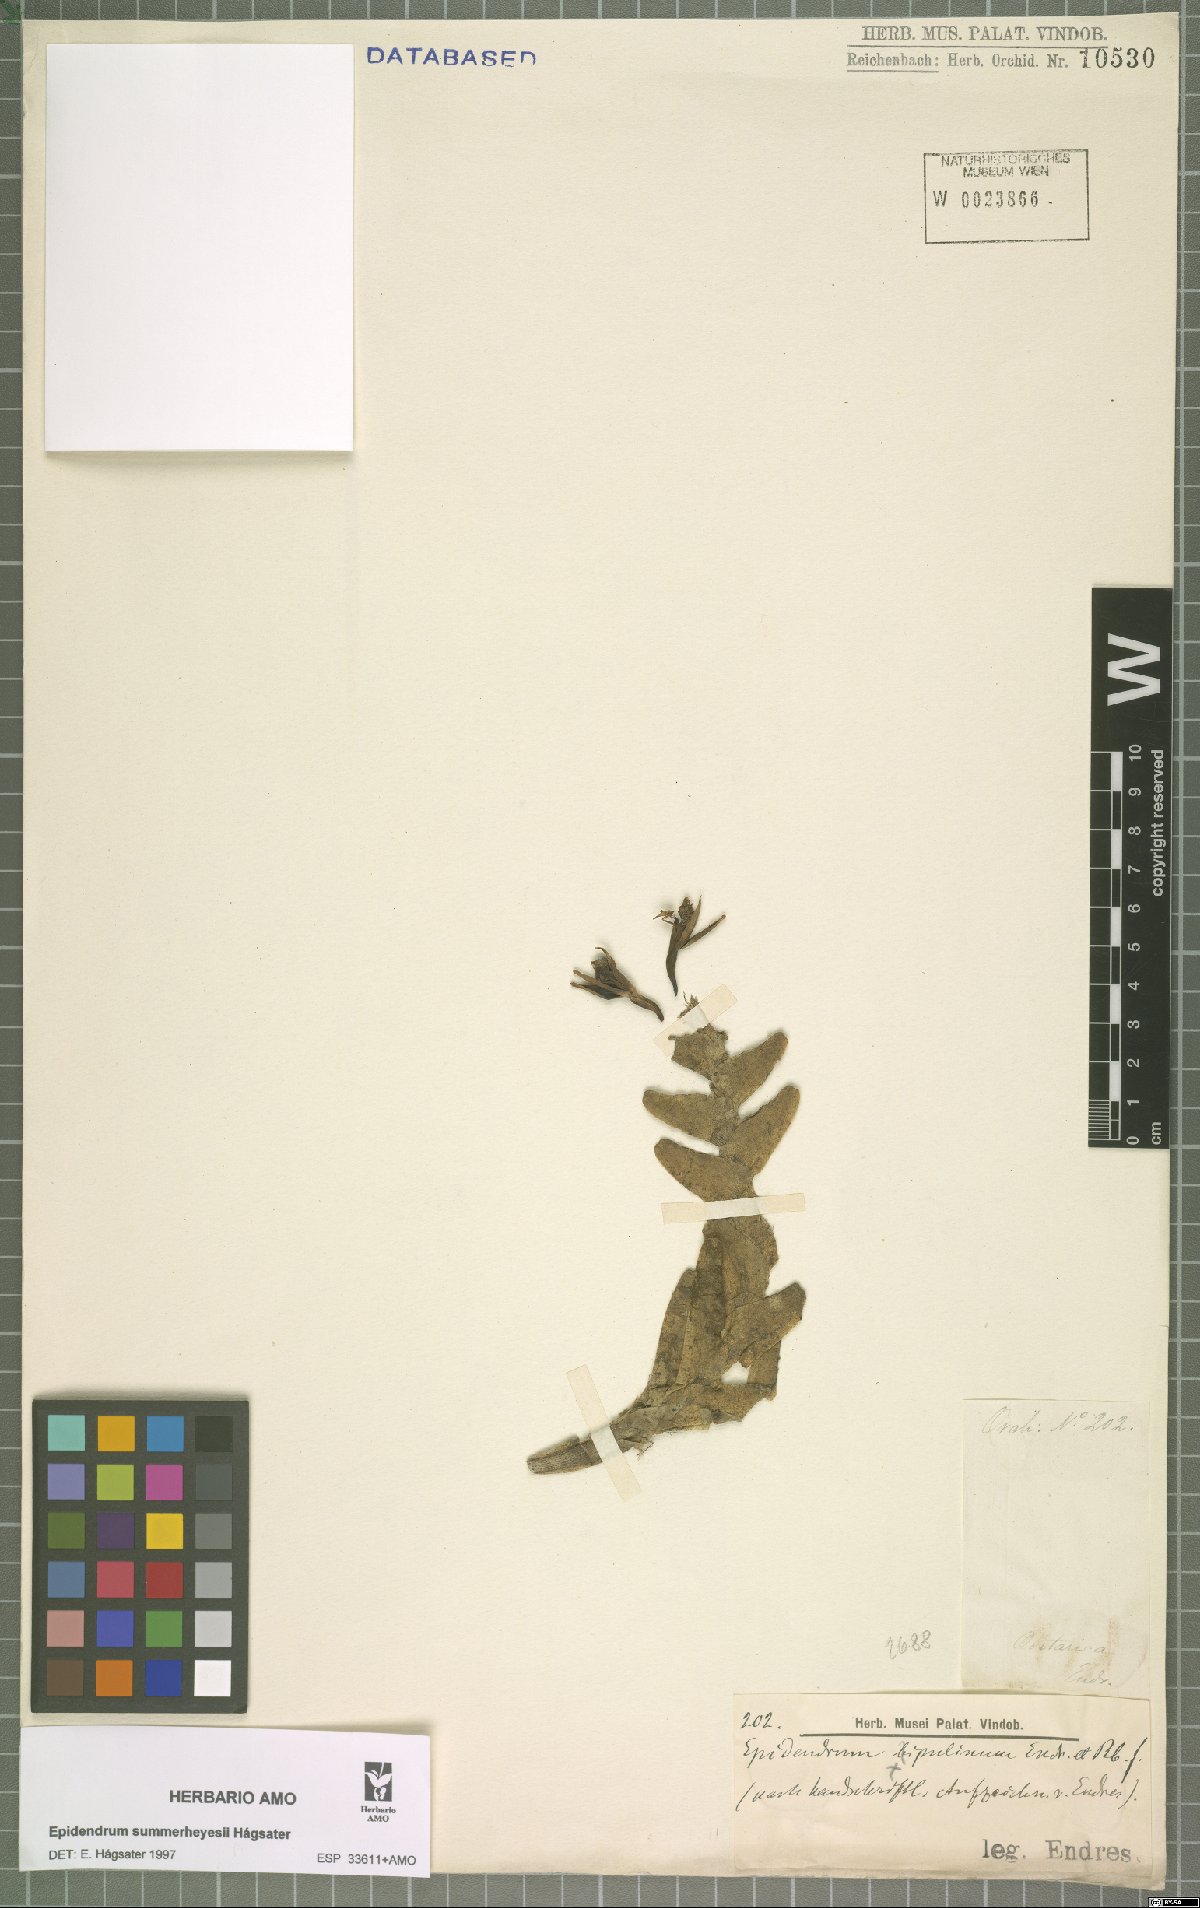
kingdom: Plantae
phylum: Tracheophyta
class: Liliopsida
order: Asparagales
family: Orchidaceae
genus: Epidendrum
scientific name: Epidendrum summerhayesii
